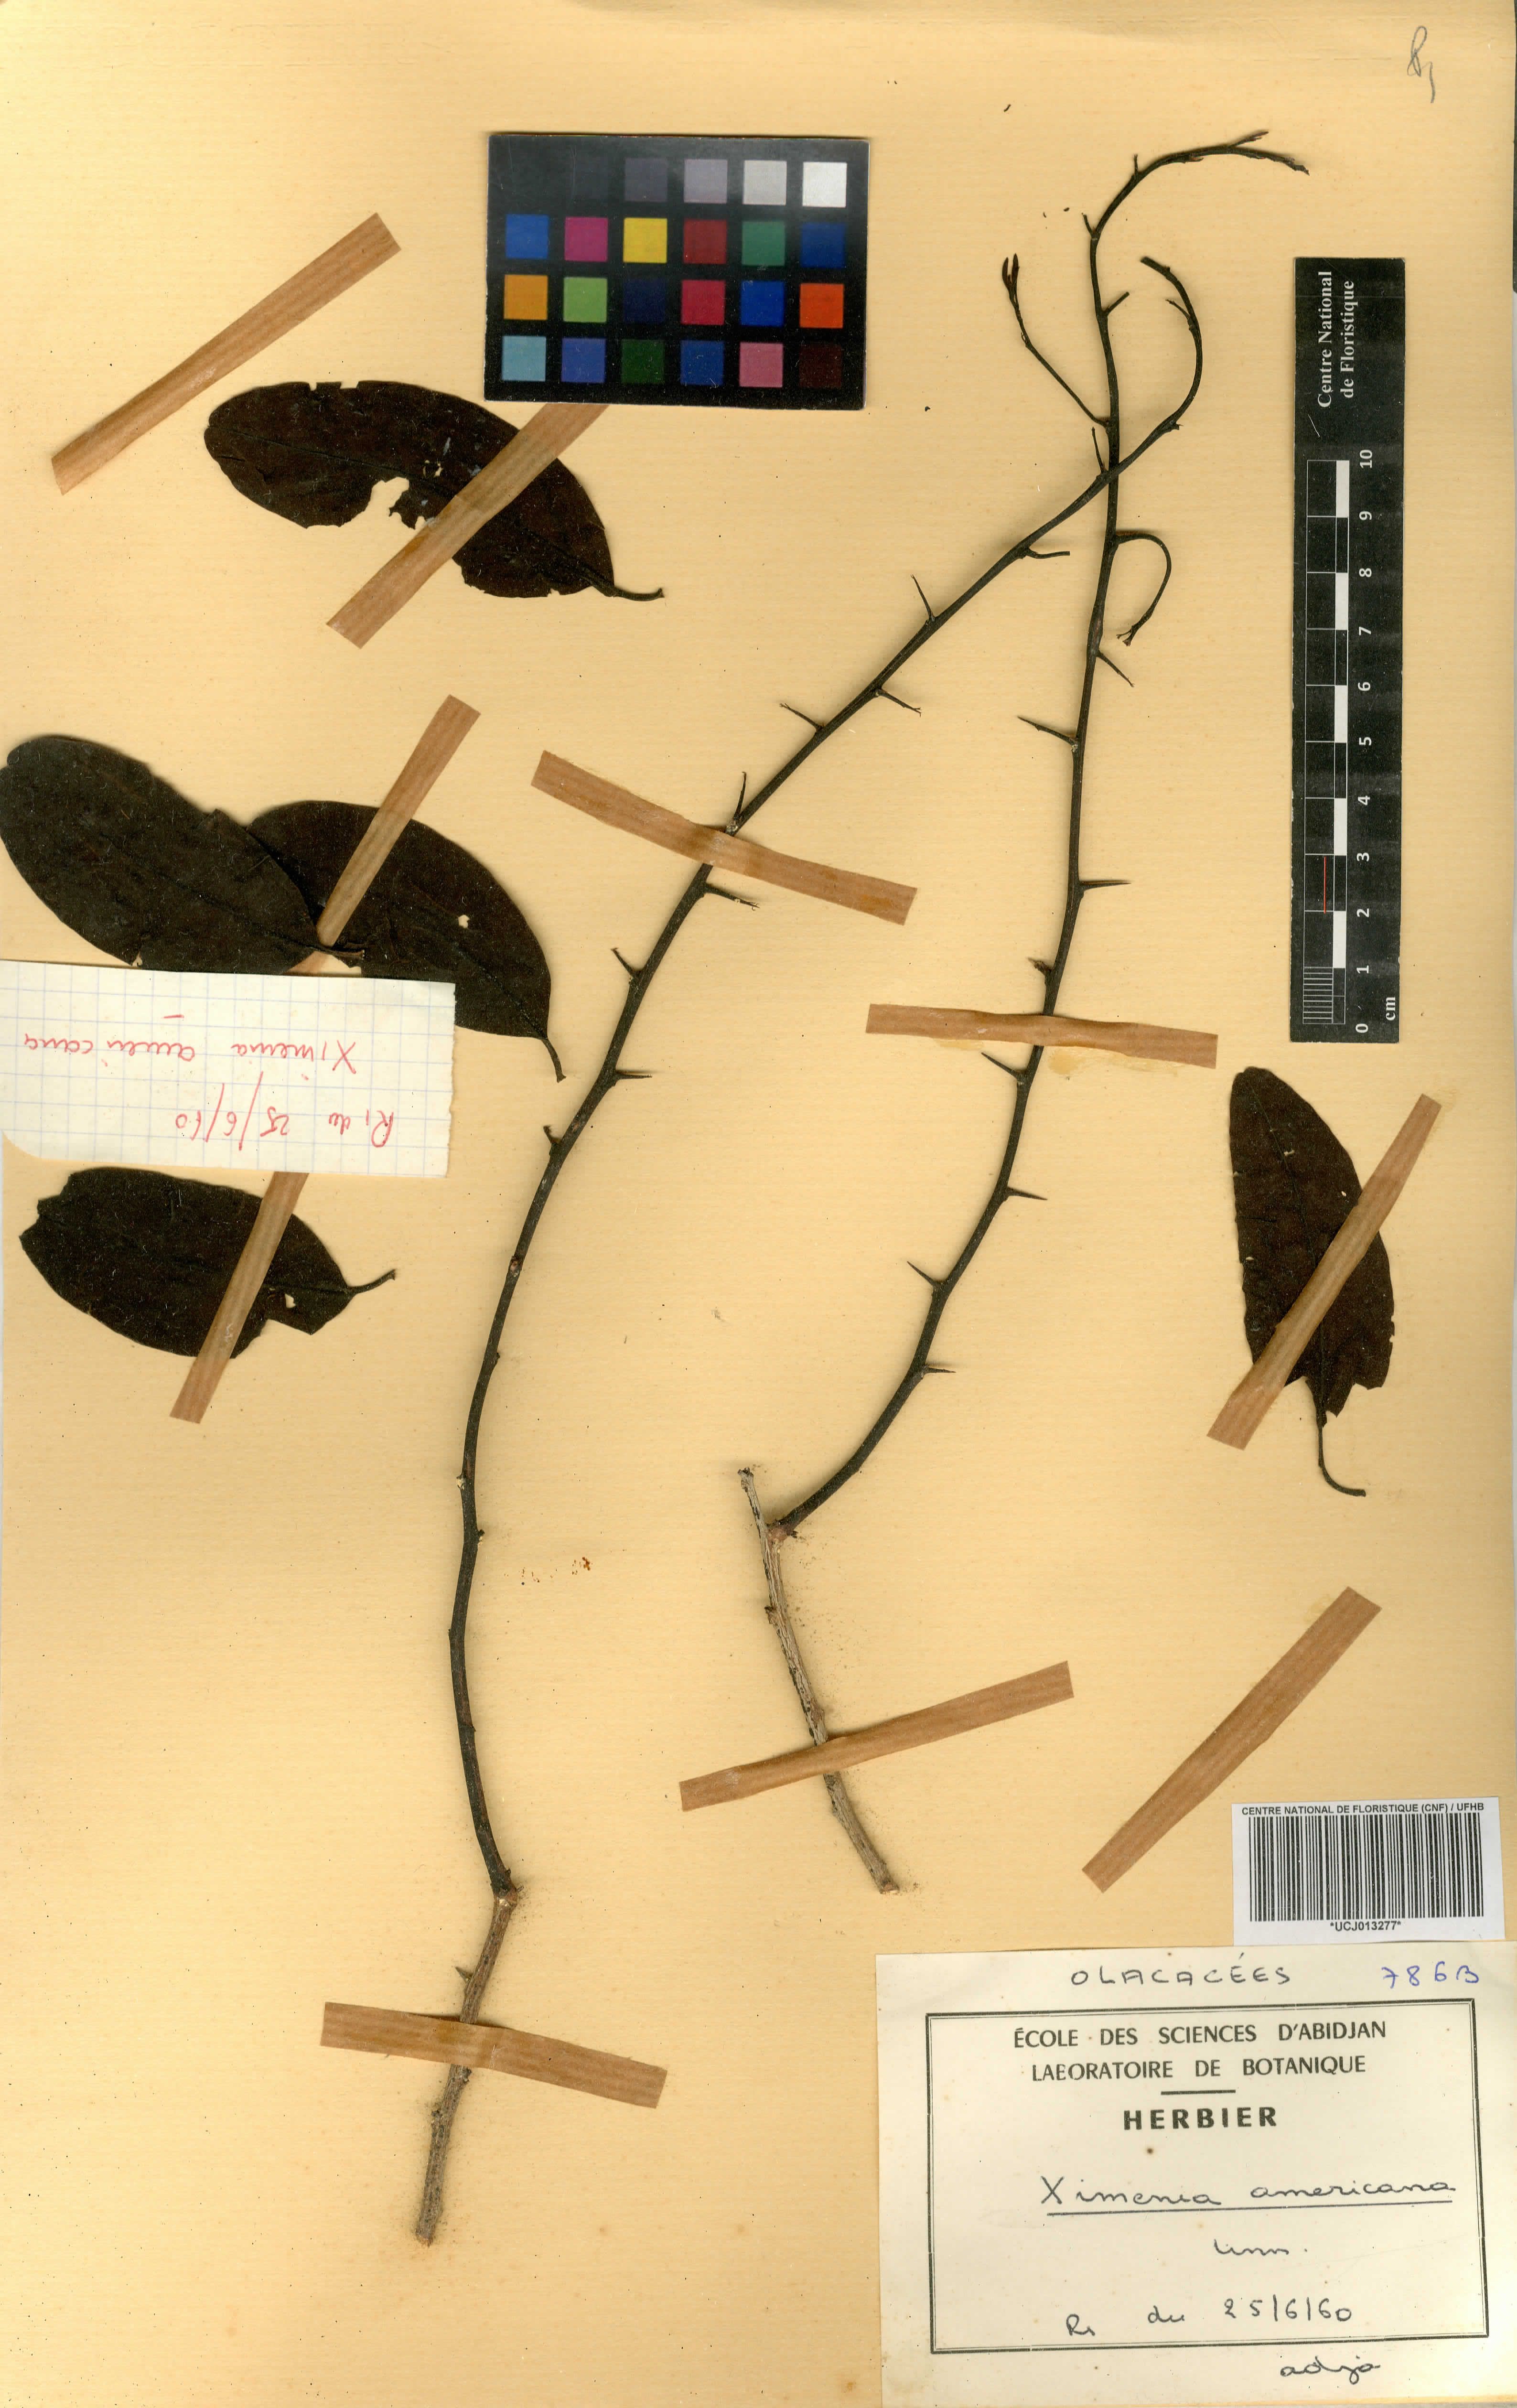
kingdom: Plantae
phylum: Tracheophyta
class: Magnoliopsida
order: Santalales
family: Ximeniaceae
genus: Ximenia
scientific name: Ximenia americana
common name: Tallowwood
